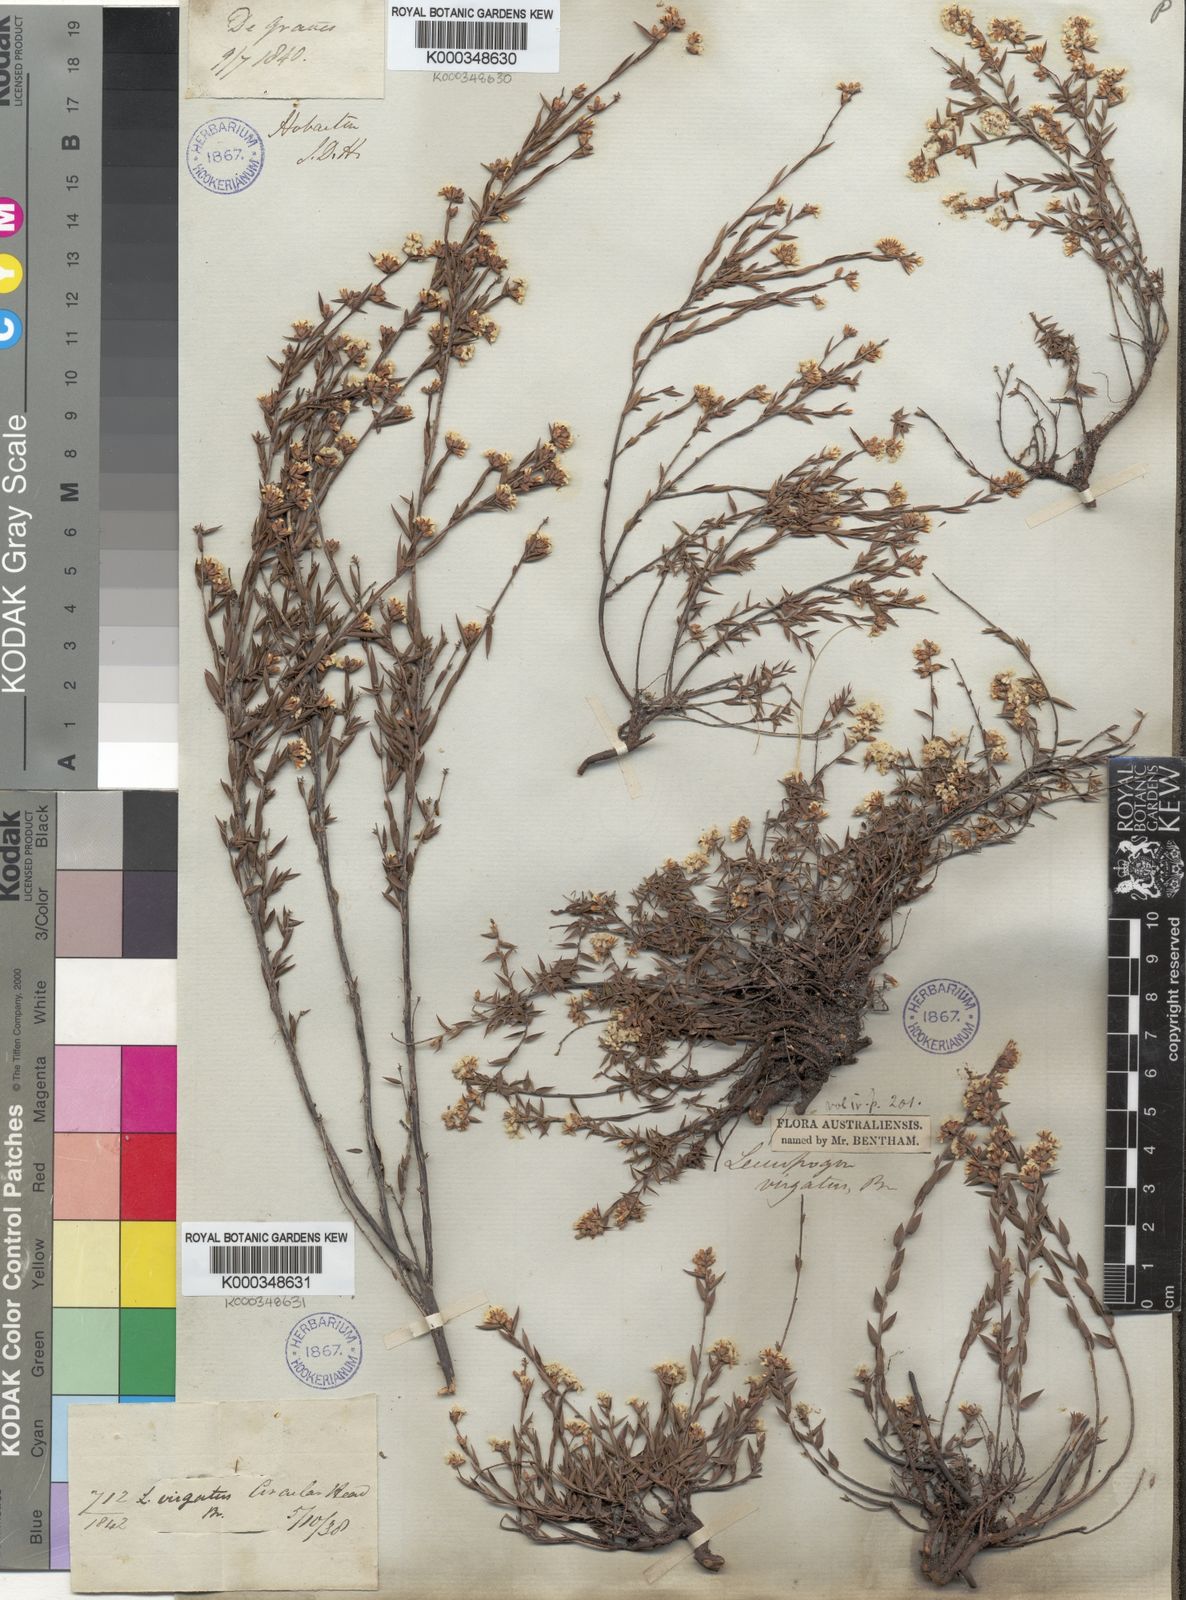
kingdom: Plantae
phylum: Tracheophyta
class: Magnoliopsida
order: Ericales
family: Ericaceae
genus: Leucopogon
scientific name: Leucopogon virgatus
